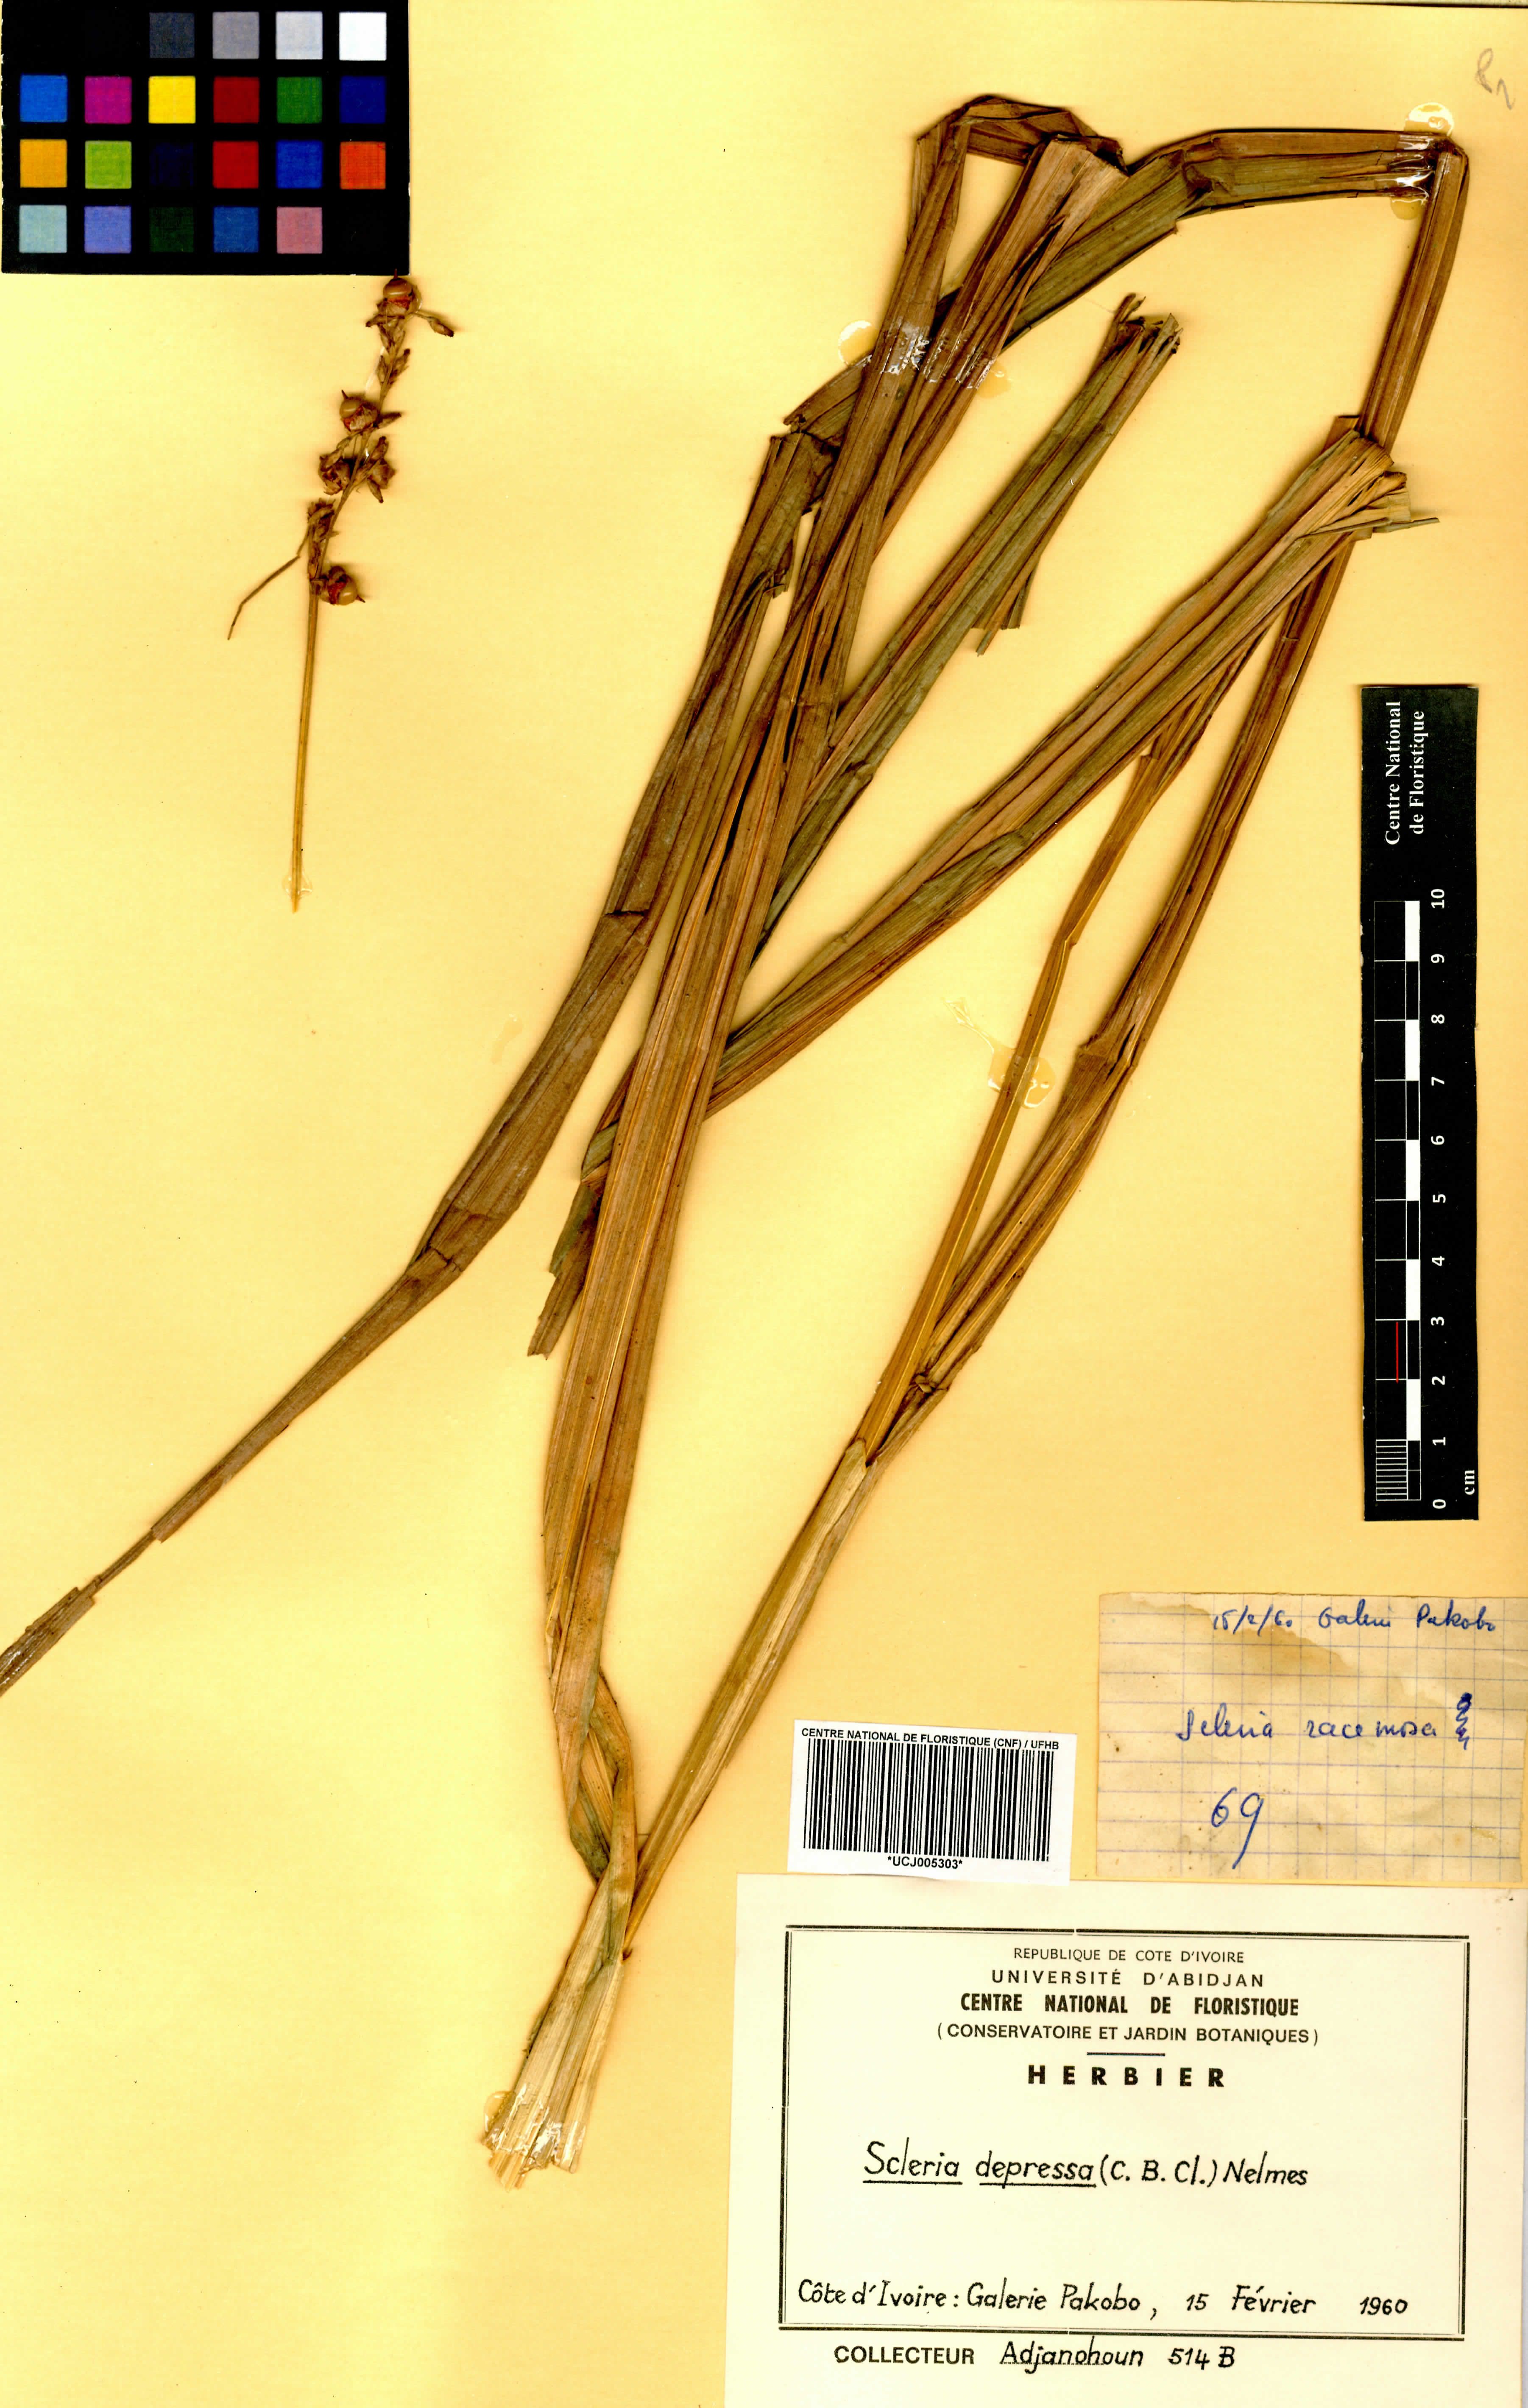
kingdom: Plantae
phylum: Tracheophyta
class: Liliopsida
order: Poales
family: Cyperaceae
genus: Scleria
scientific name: Scleria depressa
